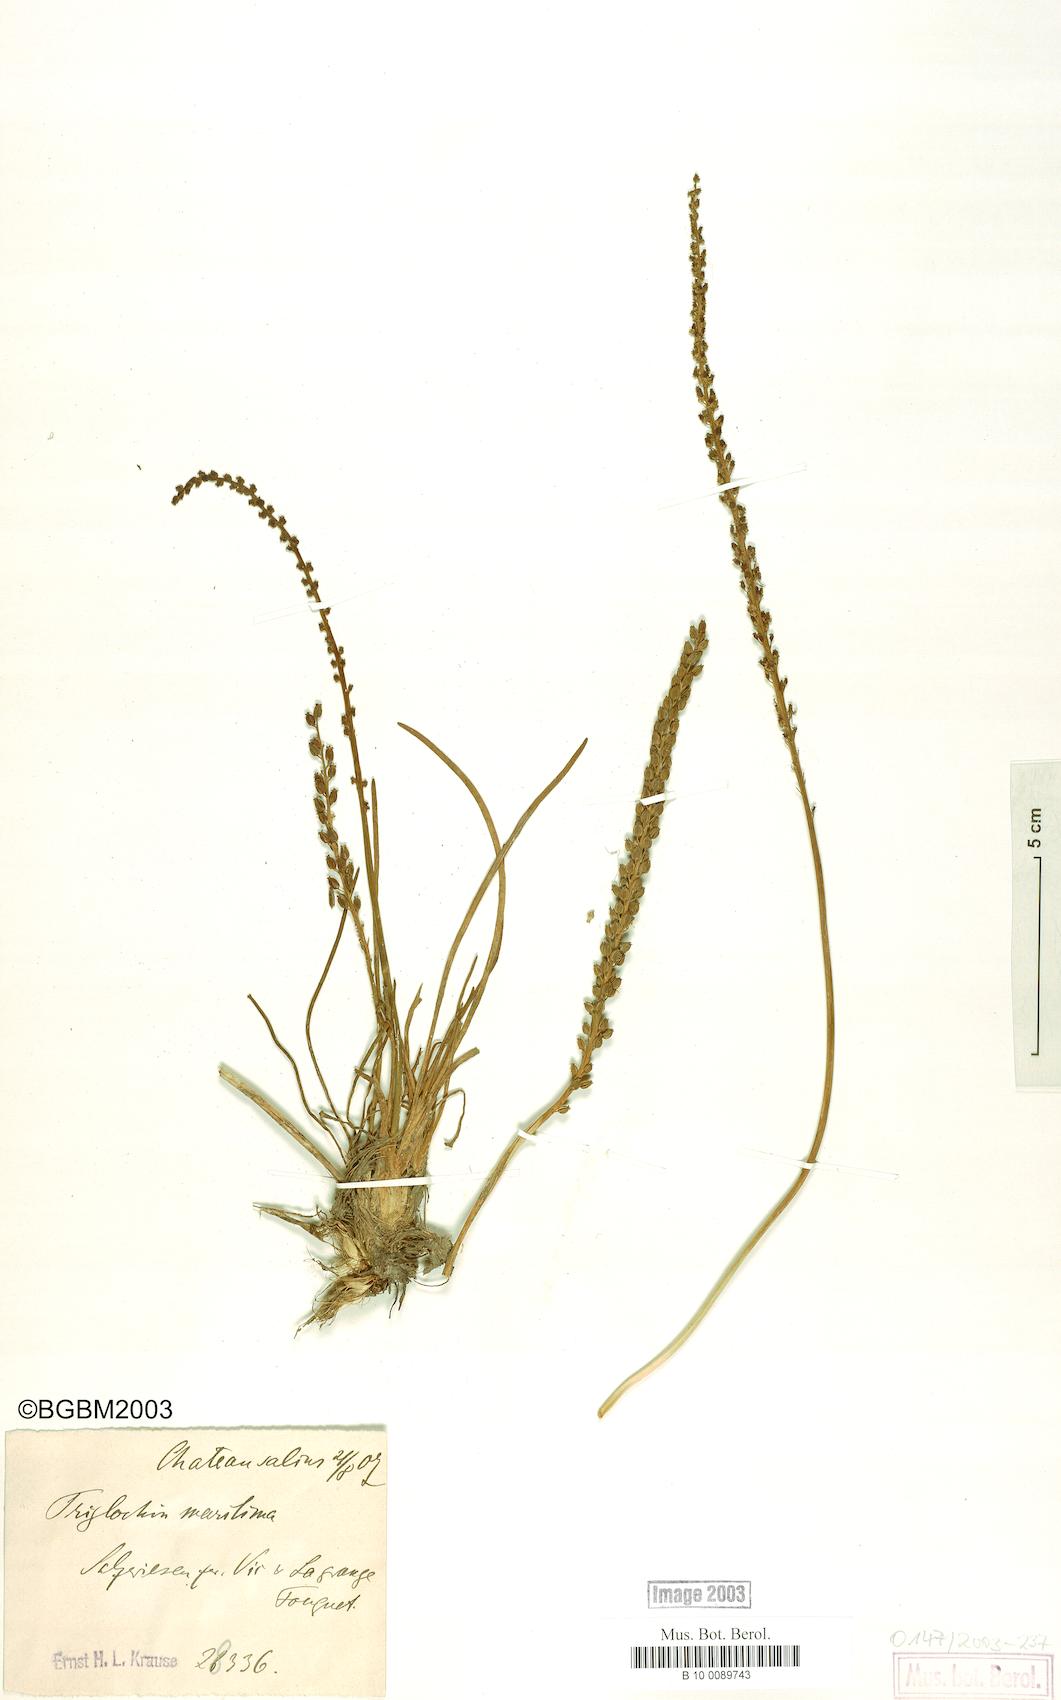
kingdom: Plantae
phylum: Tracheophyta
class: Liliopsida
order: Alismatales
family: Juncaginaceae
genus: Triglochin
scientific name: Triglochin maritima
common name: Sea arrowgrass
